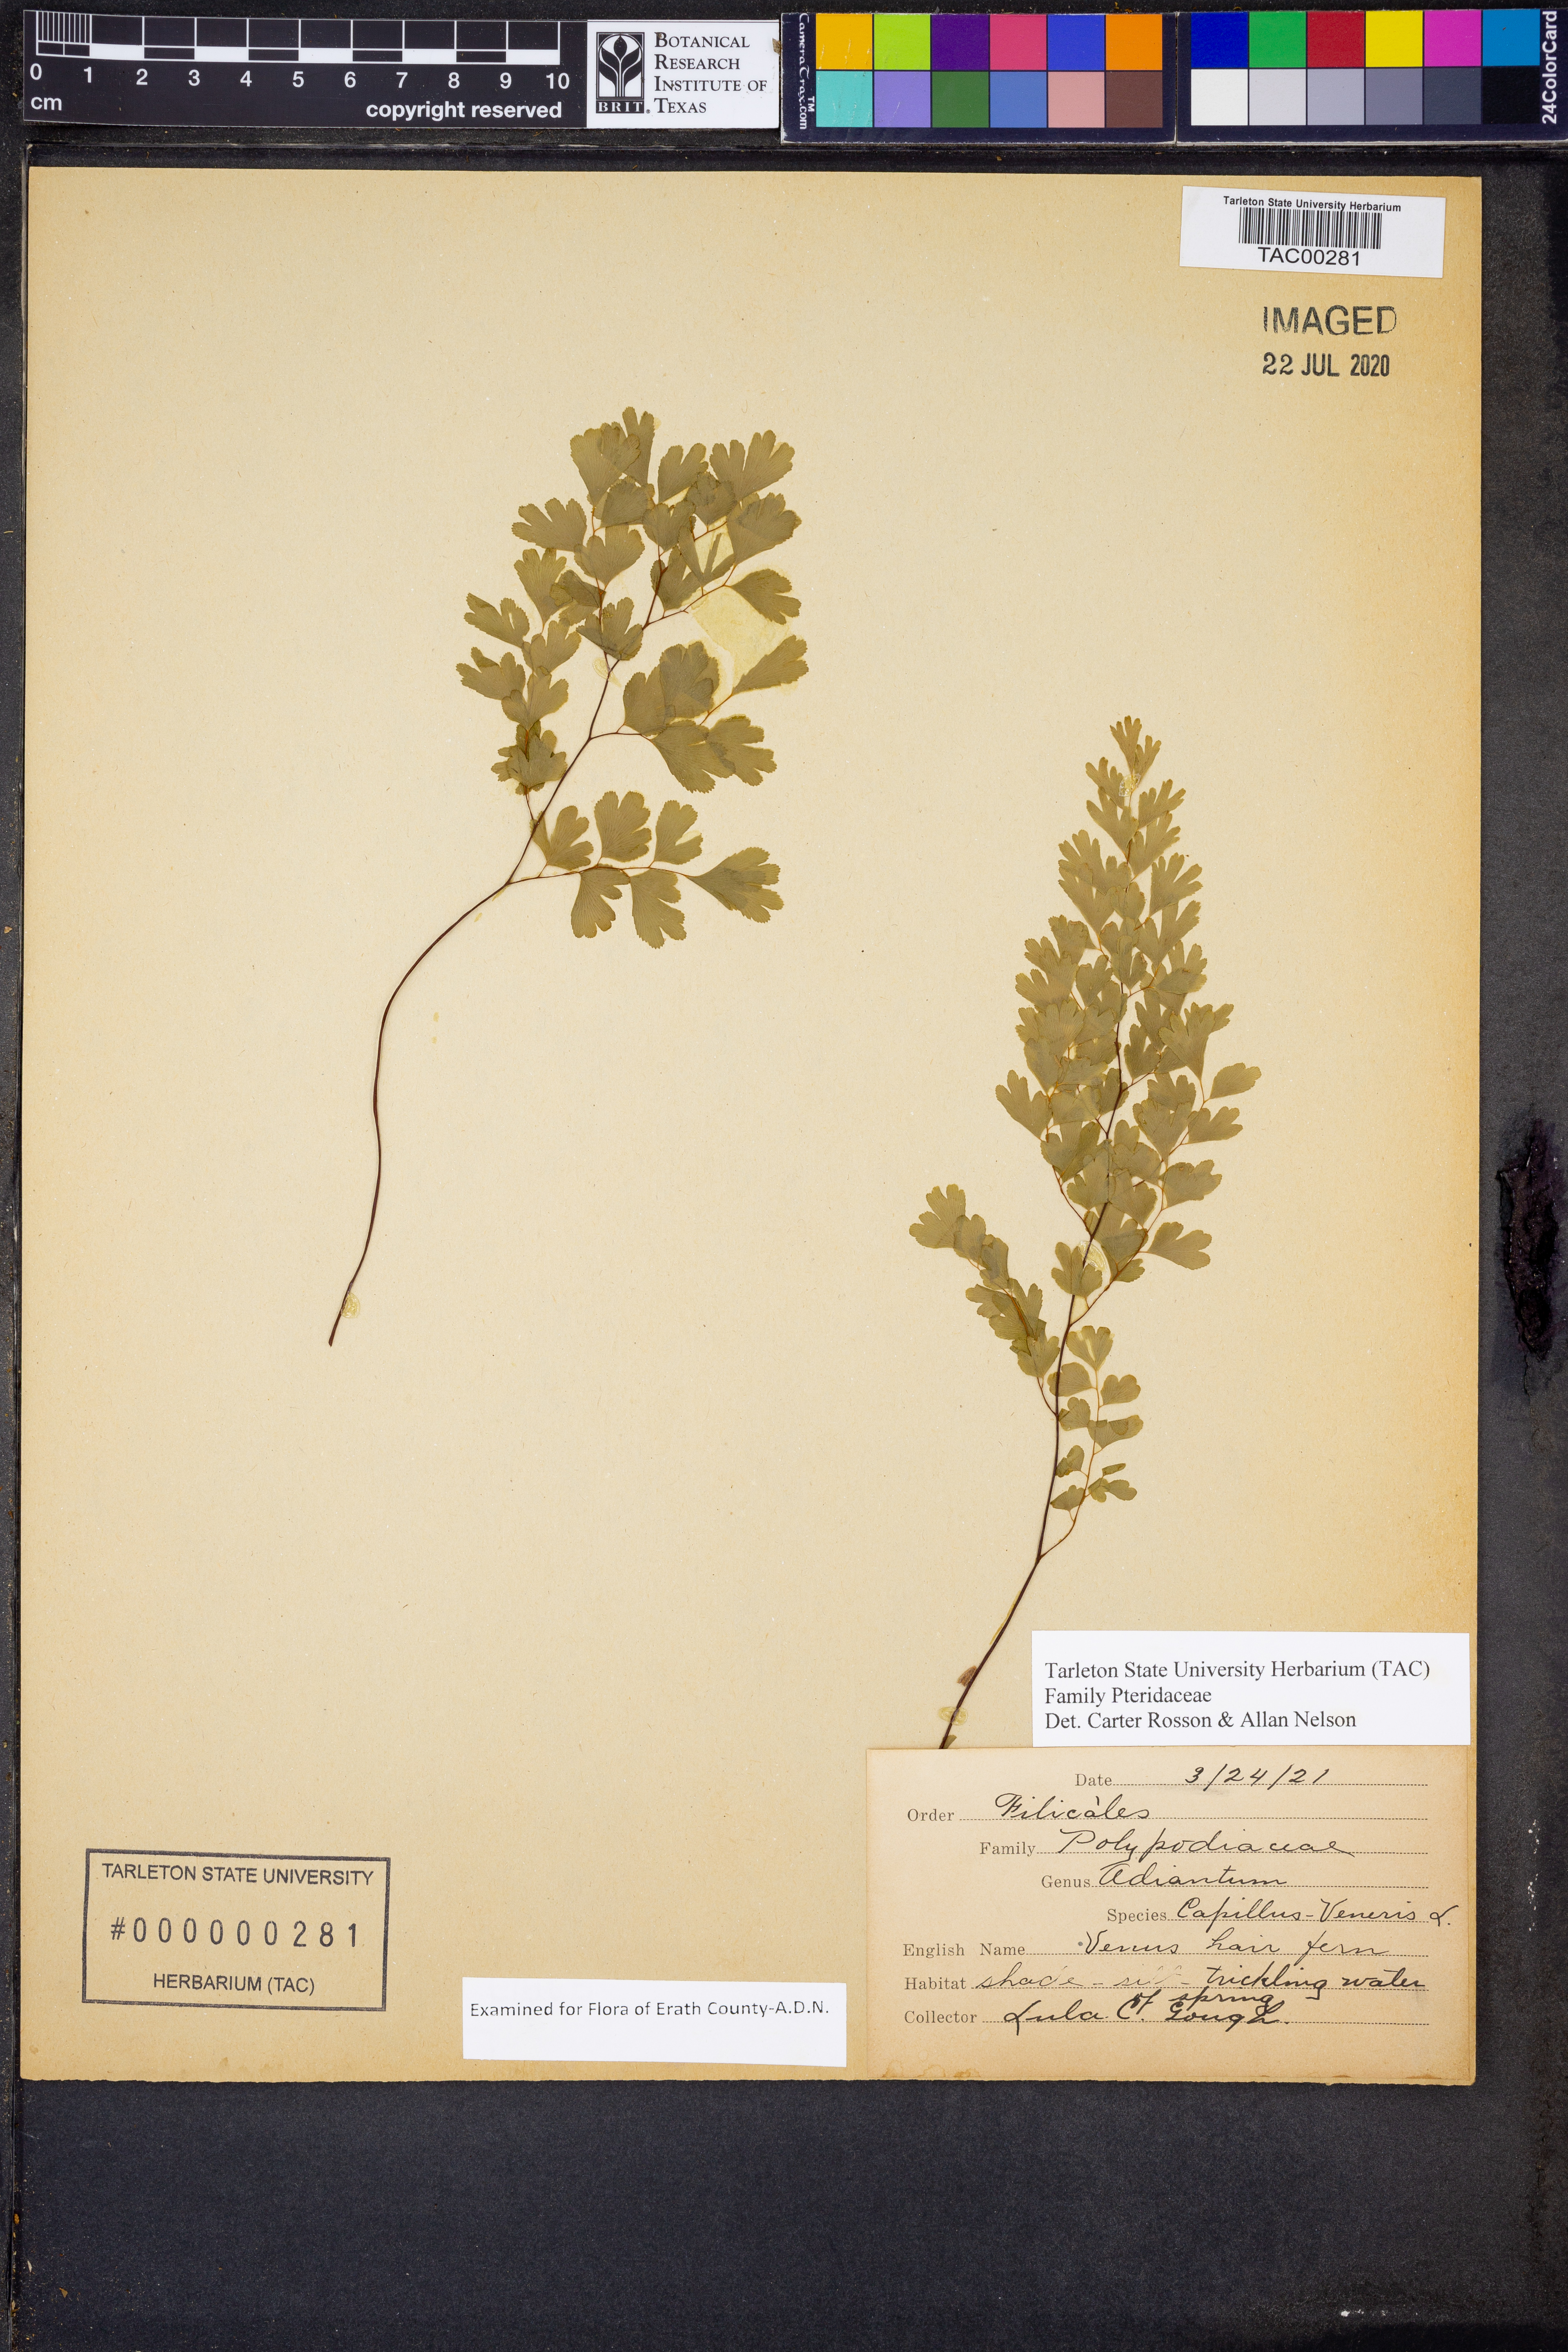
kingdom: Plantae
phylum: Tracheophyta
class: Polypodiopsida
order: Polypodiales
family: Pteridaceae
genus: Adiantum
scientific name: Adiantum capillus-veneris
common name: Maidenhair fern
